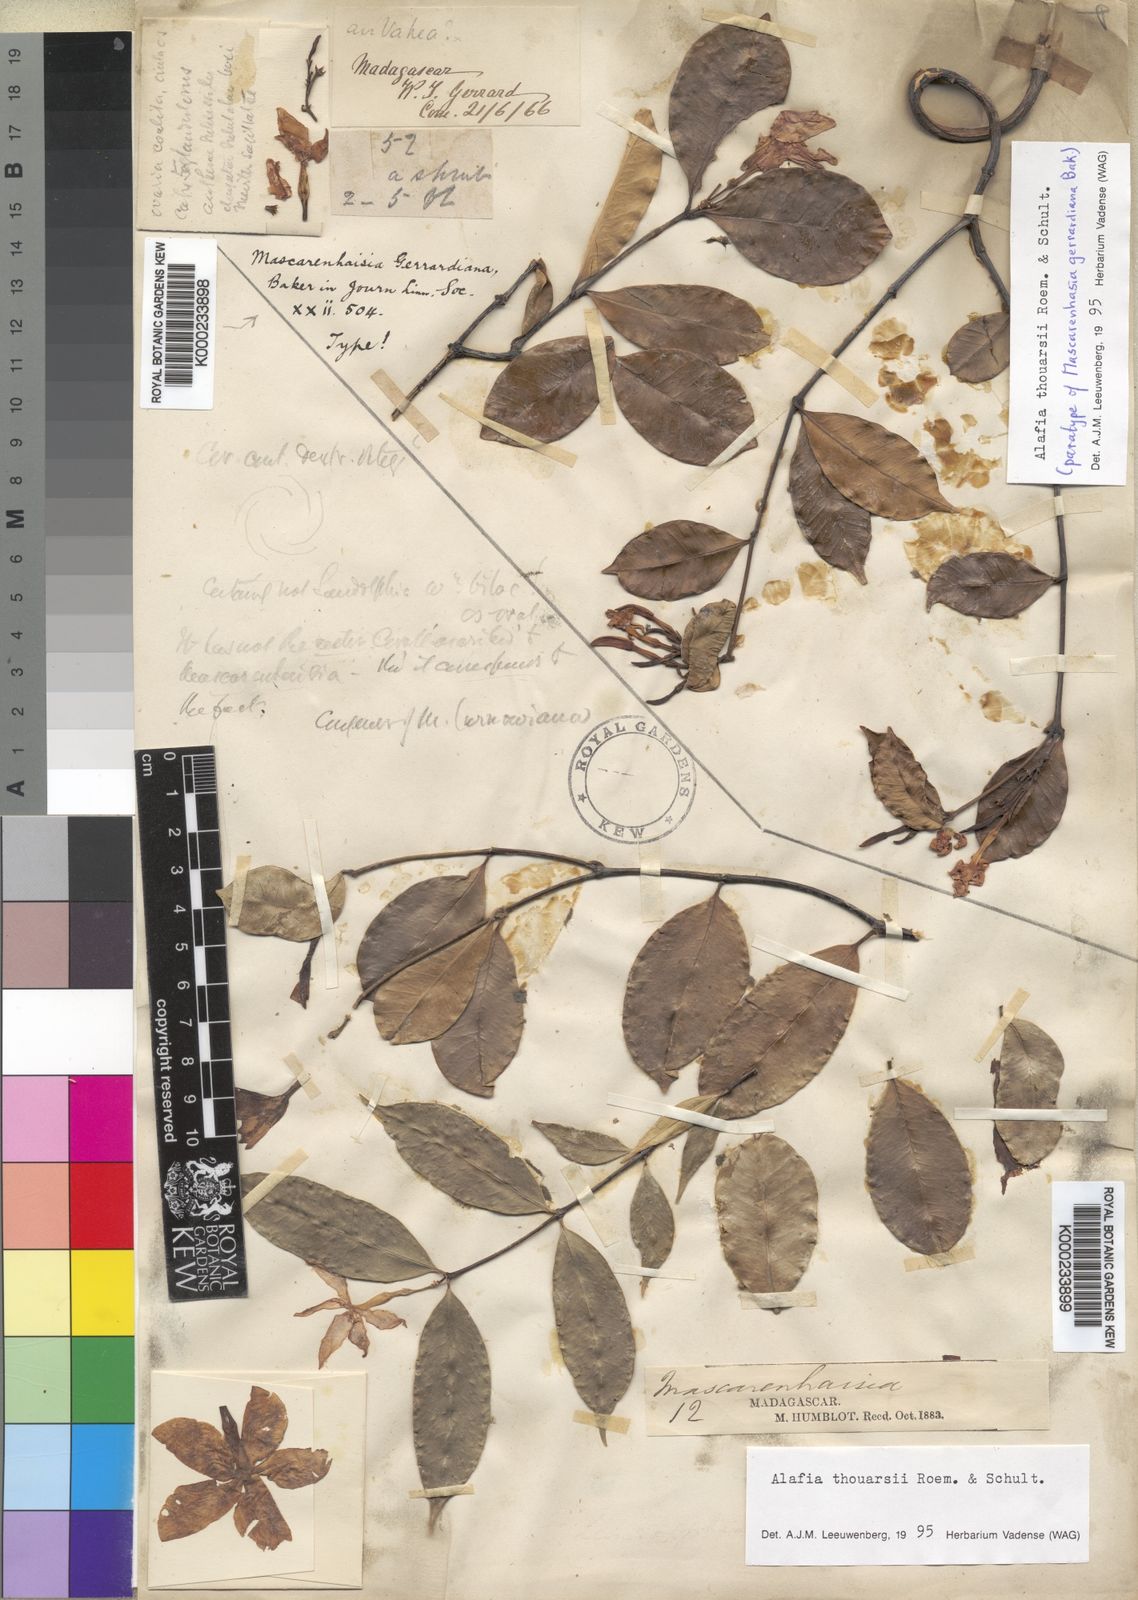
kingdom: Plantae
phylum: Tracheophyta
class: Magnoliopsida
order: Gentianales
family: Apocynaceae
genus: Alafia
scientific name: Alafia thouarsii
